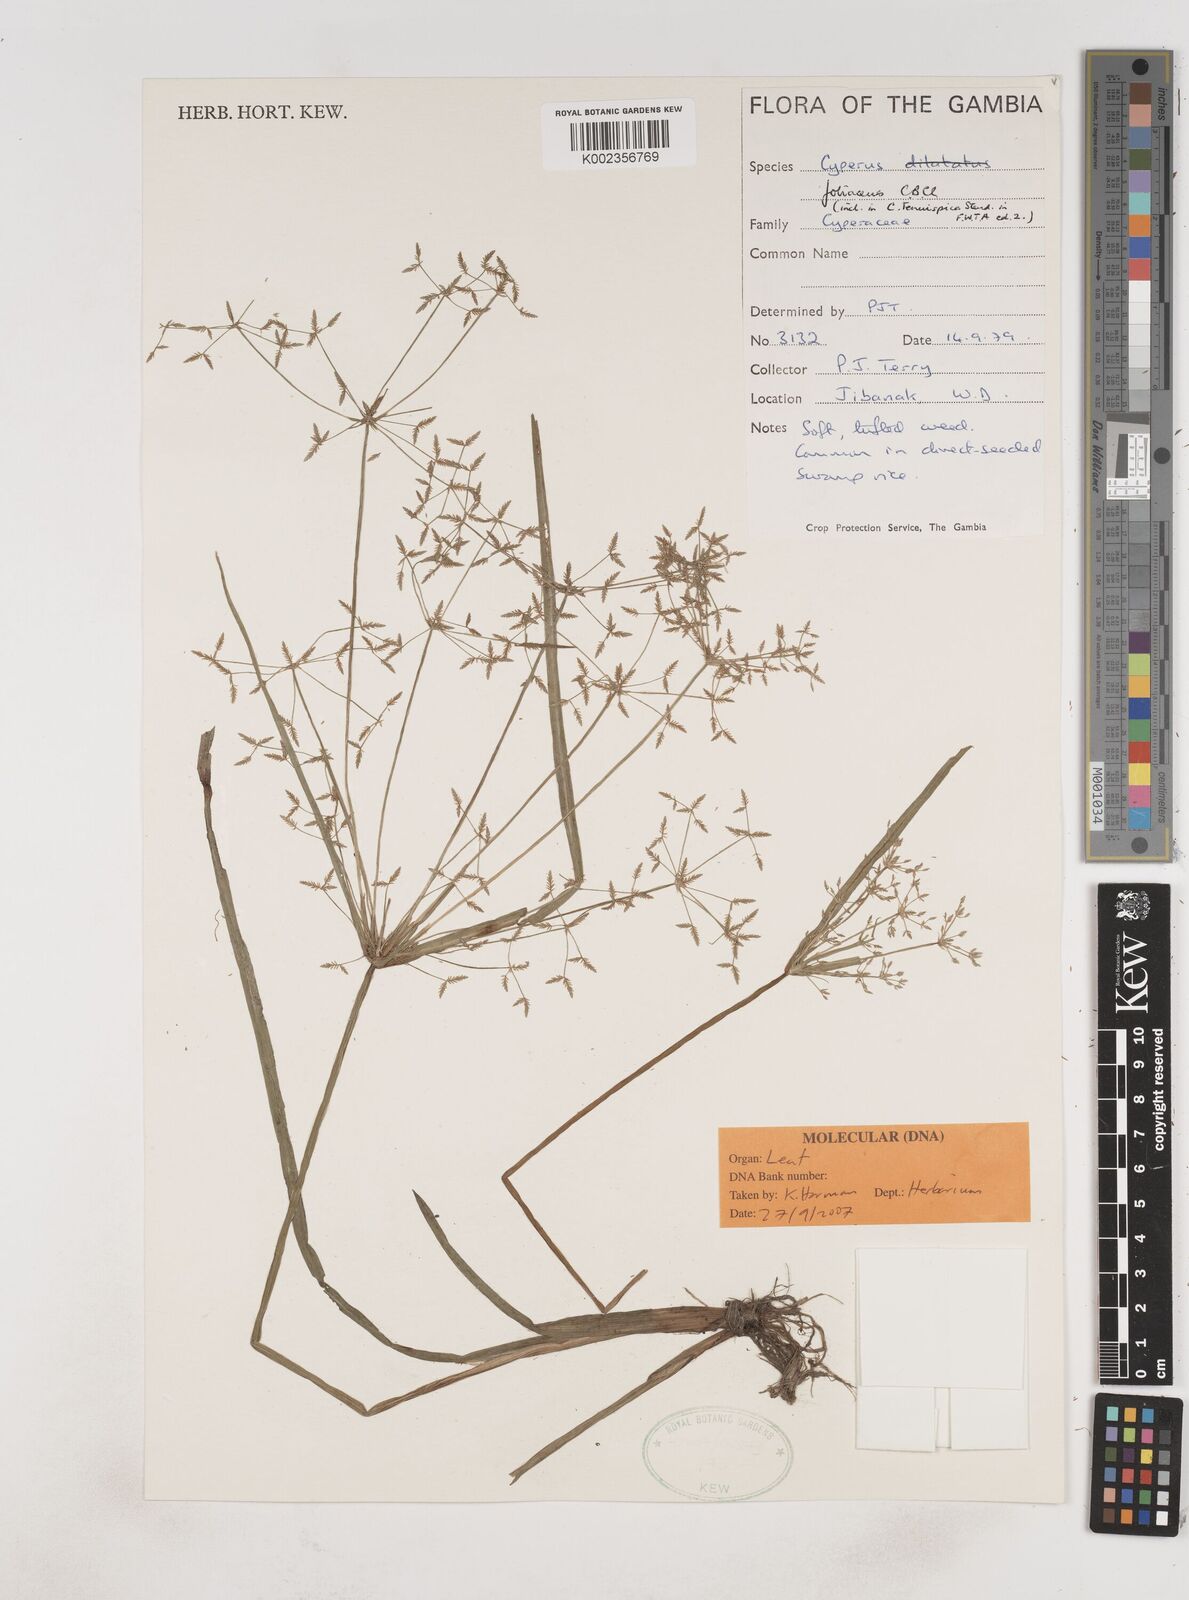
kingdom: Plantae
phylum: Tracheophyta
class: Liliopsida
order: Poales
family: Cyperaceae
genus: Cyperus
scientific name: Cyperus tenuispica
